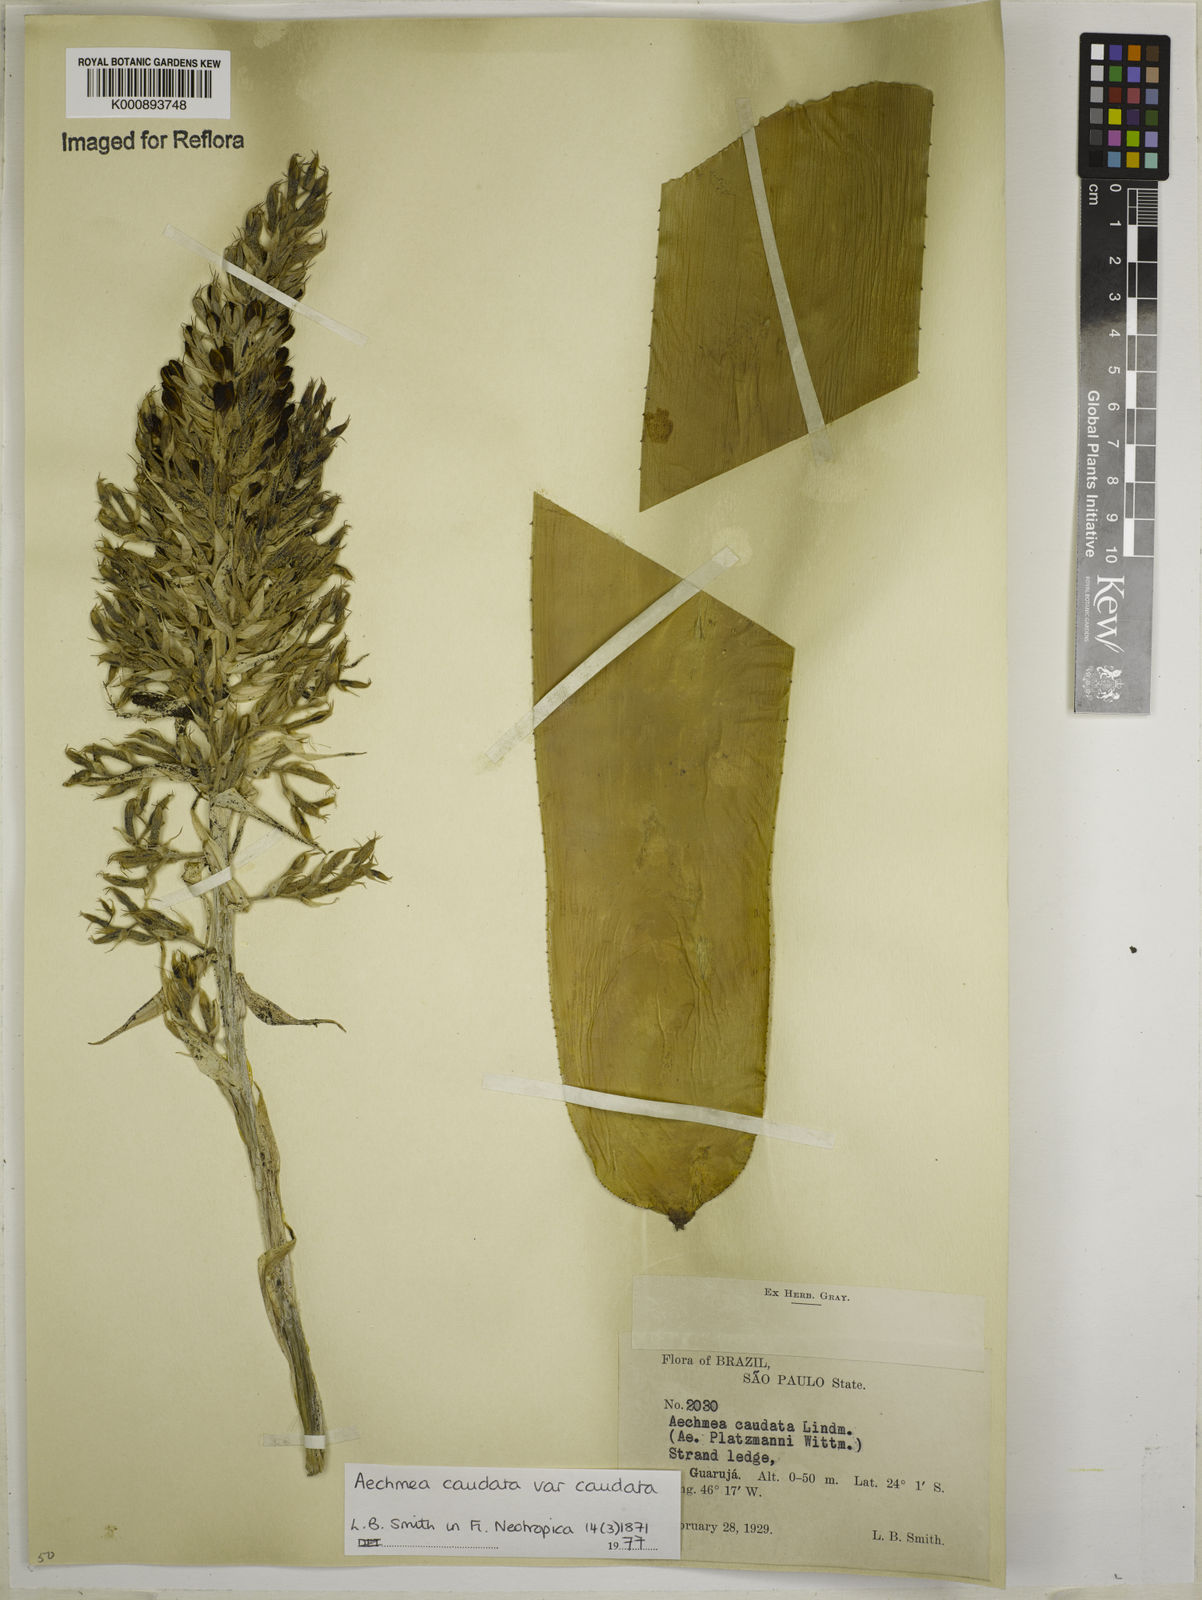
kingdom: Plantae
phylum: Tracheophyta
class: Liliopsida
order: Poales
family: Bromeliaceae
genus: Aechmea
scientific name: Aechmea caudata
